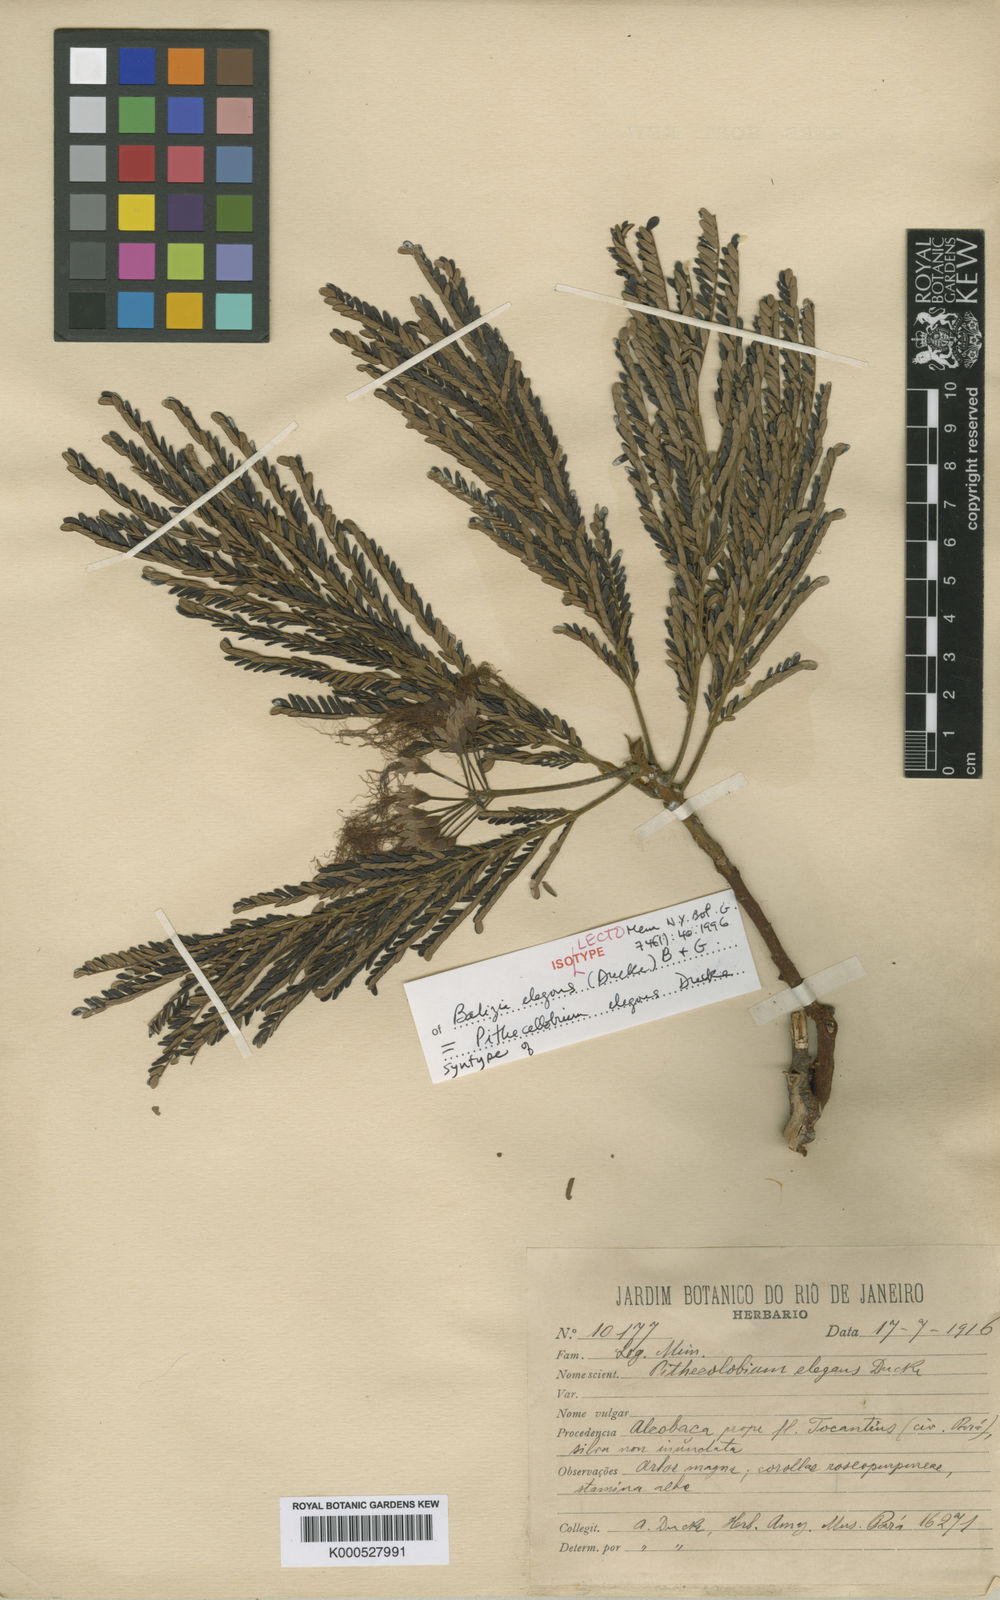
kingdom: Plantae
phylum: Tracheophyta
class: Magnoliopsida
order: Fabales
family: Fabaceae
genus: Albizia
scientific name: Albizia
